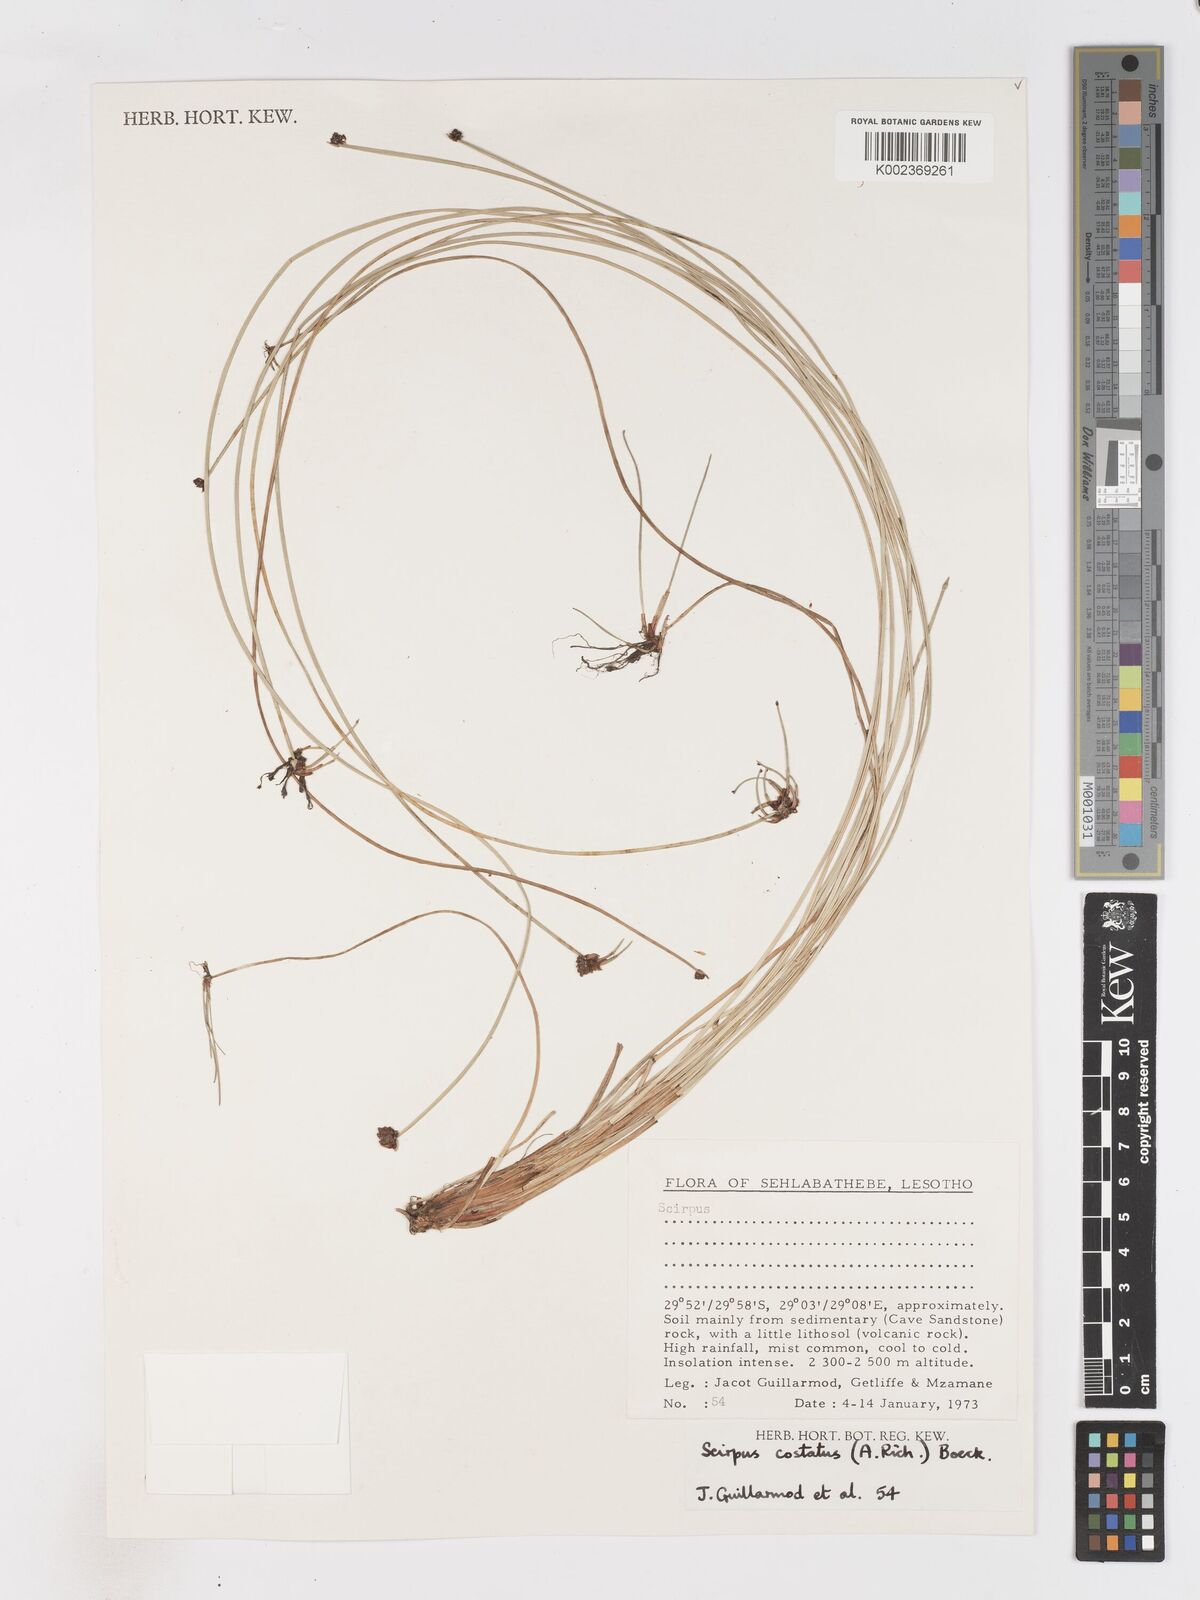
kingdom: Plantae
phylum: Tracheophyta
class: Liliopsida
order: Poales
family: Cyperaceae
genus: Isolepis
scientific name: Isolepis costata
